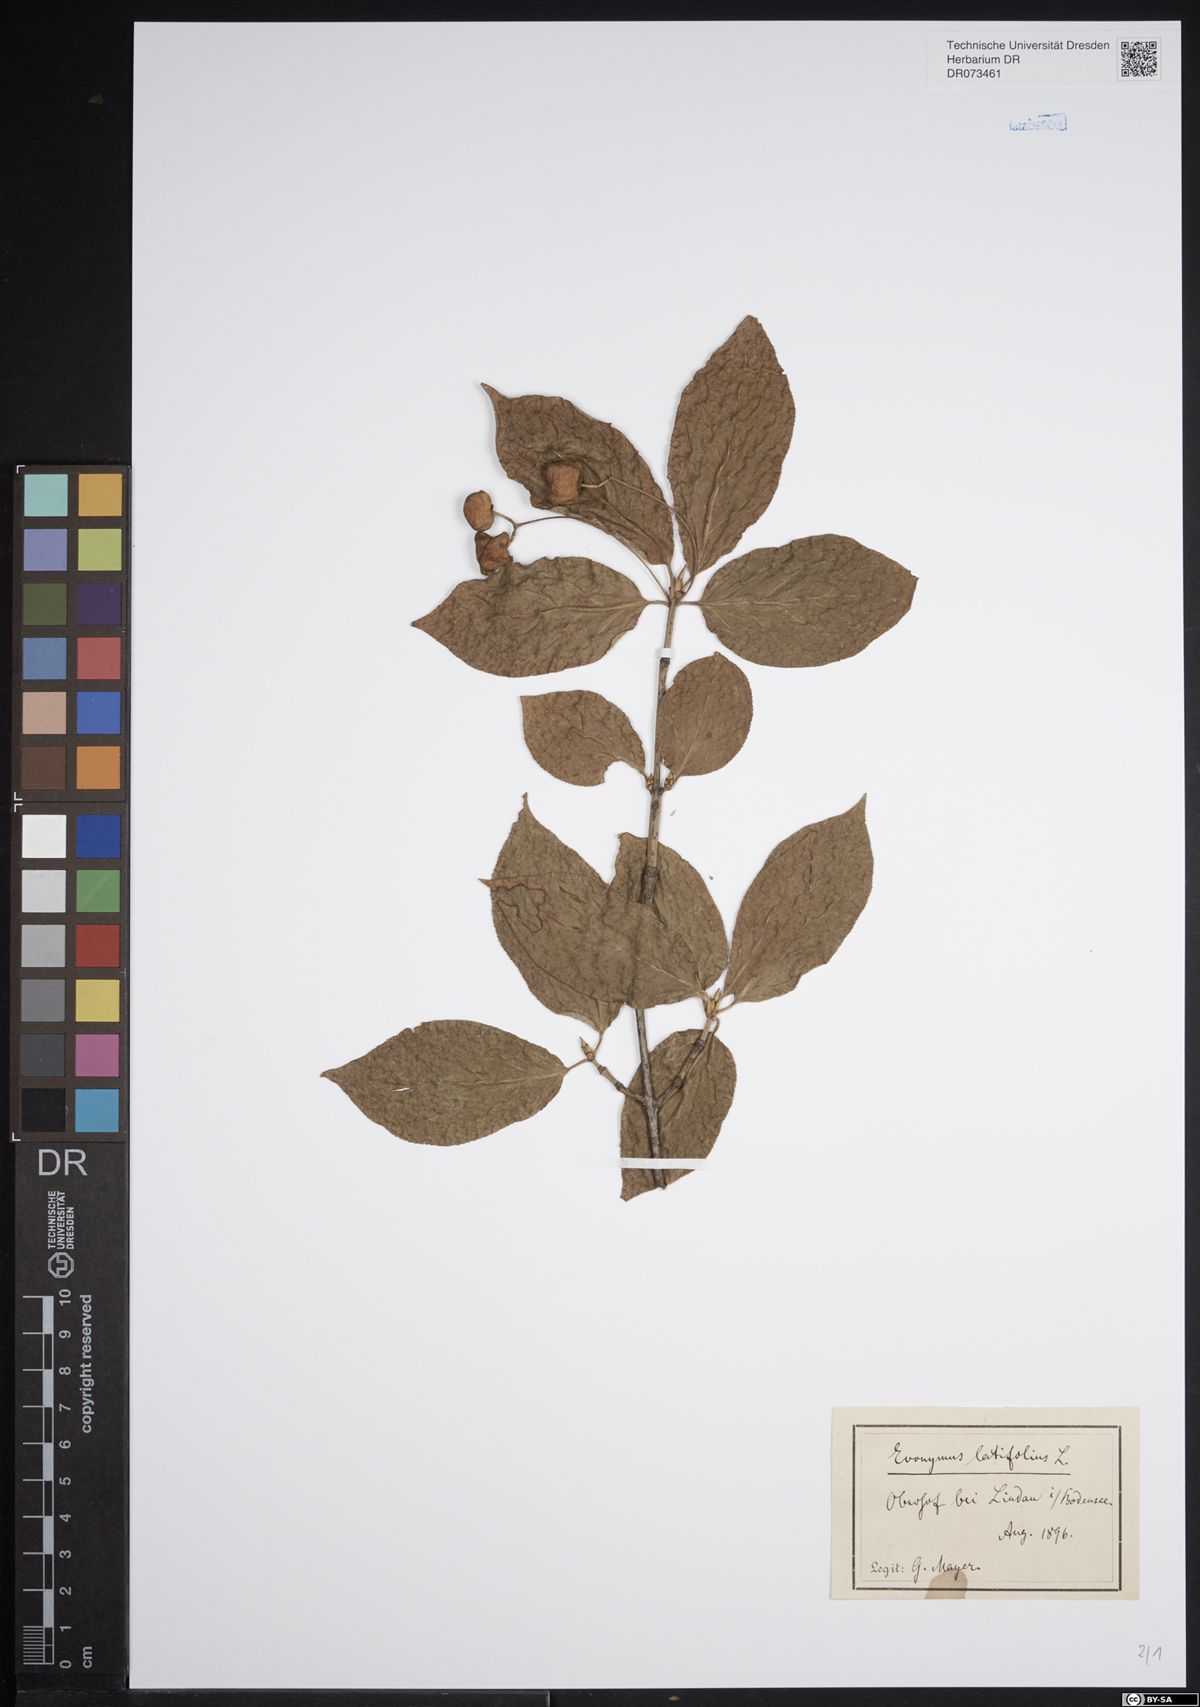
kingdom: Plantae
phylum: Tracheophyta
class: Magnoliopsida
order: Celastrales
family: Celastraceae
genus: Euonymus
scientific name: Euonymus latifolius
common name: Large-leaved spindle
